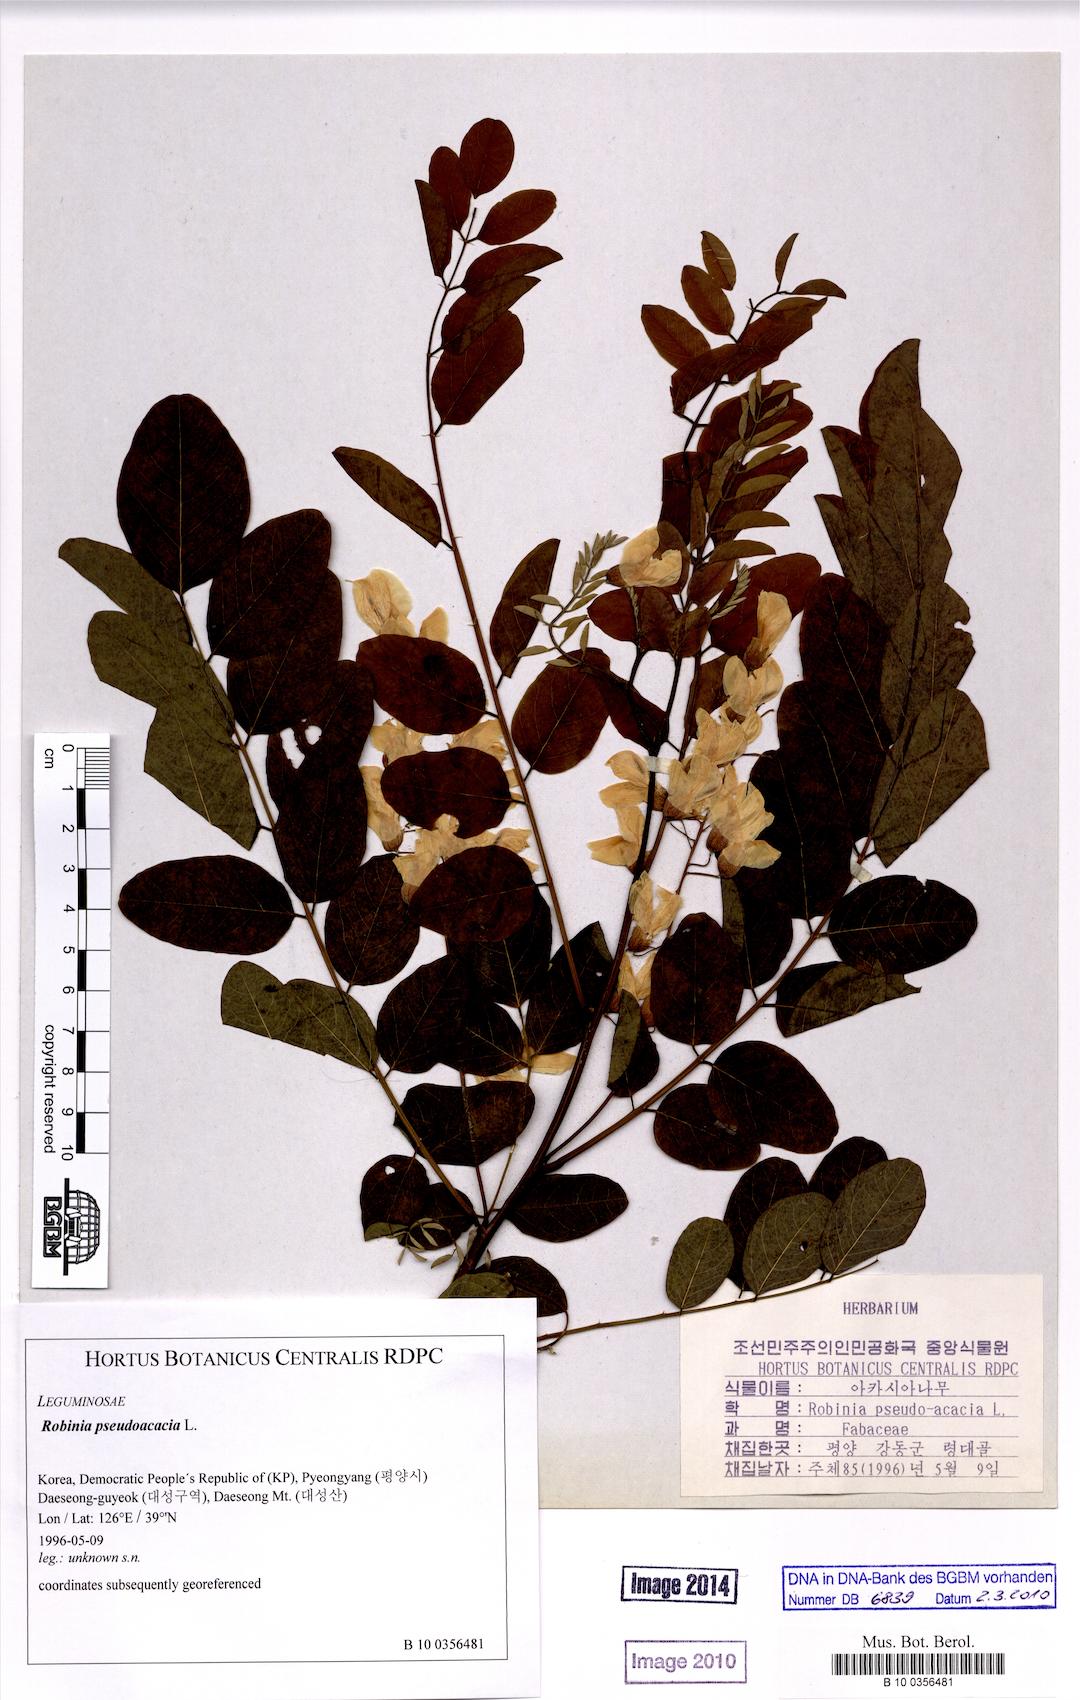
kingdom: Plantae
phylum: Tracheophyta
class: Magnoliopsida
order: Fabales
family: Fabaceae
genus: Robinia
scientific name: Robinia pseudoacacia
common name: Black locust
